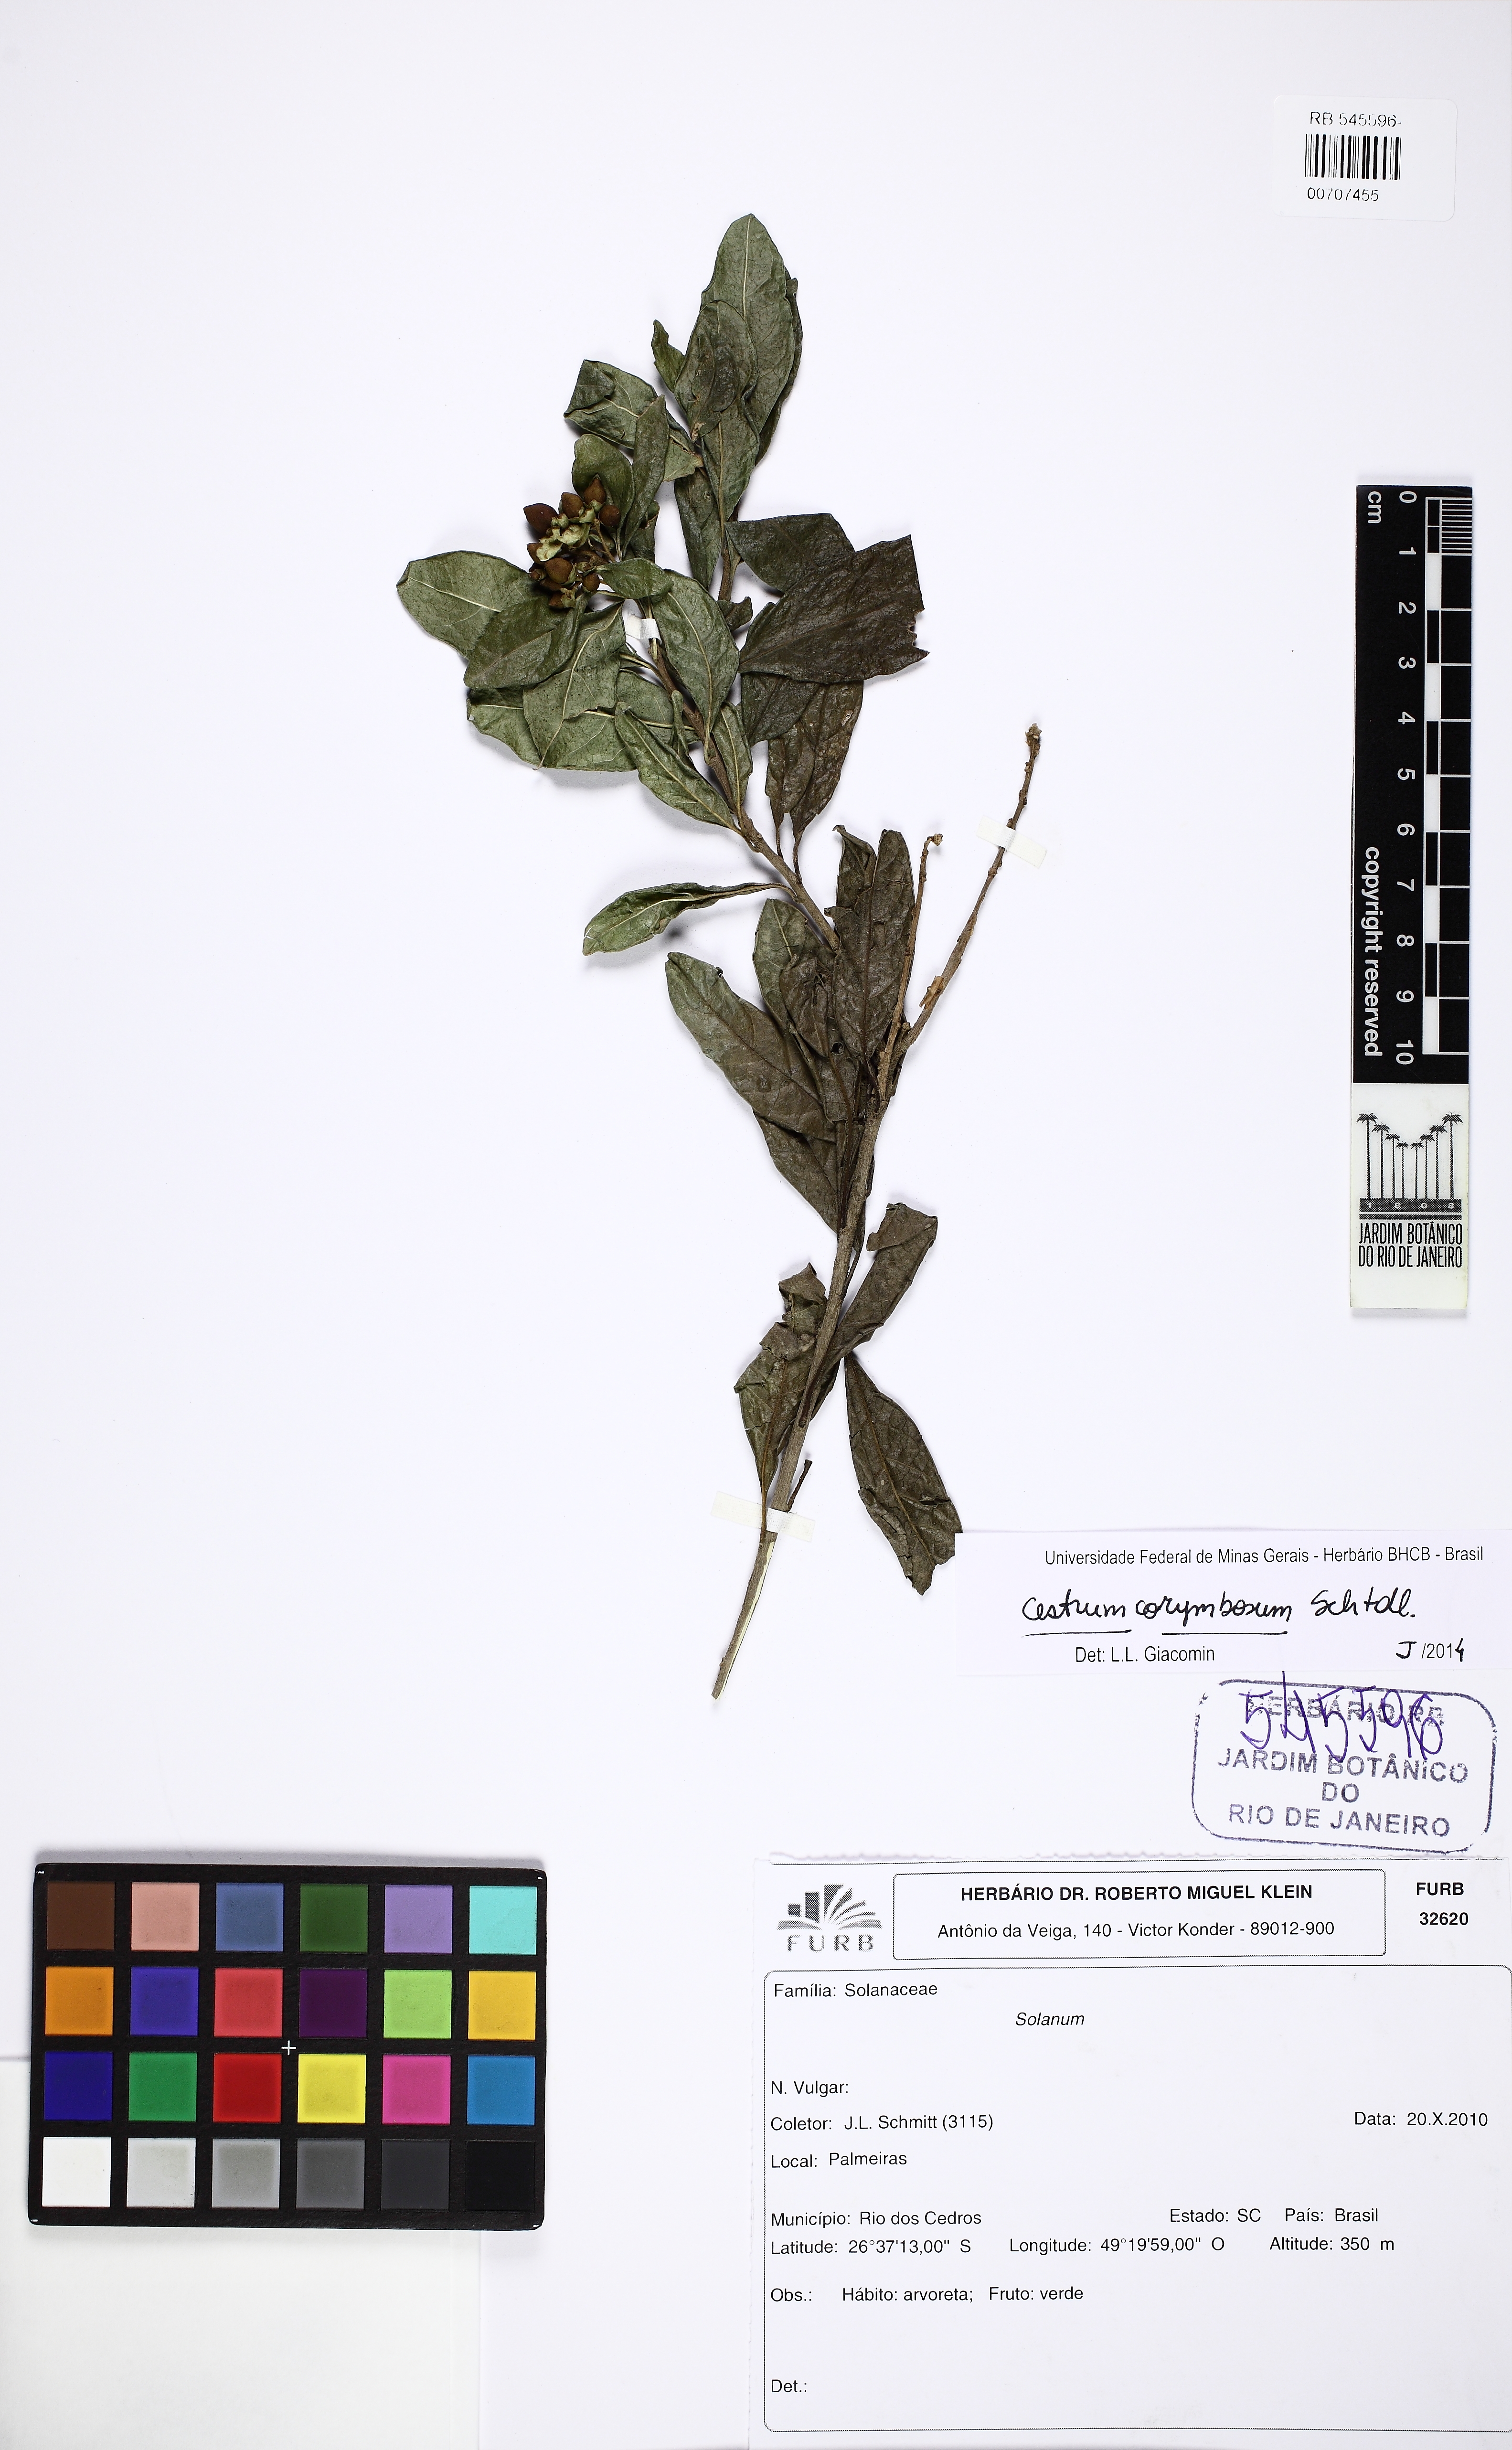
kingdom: Plantae
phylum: Tracheophyta
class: Magnoliopsida
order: Solanales
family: Solanaceae
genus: Cestrum
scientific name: Cestrum corymbosum
